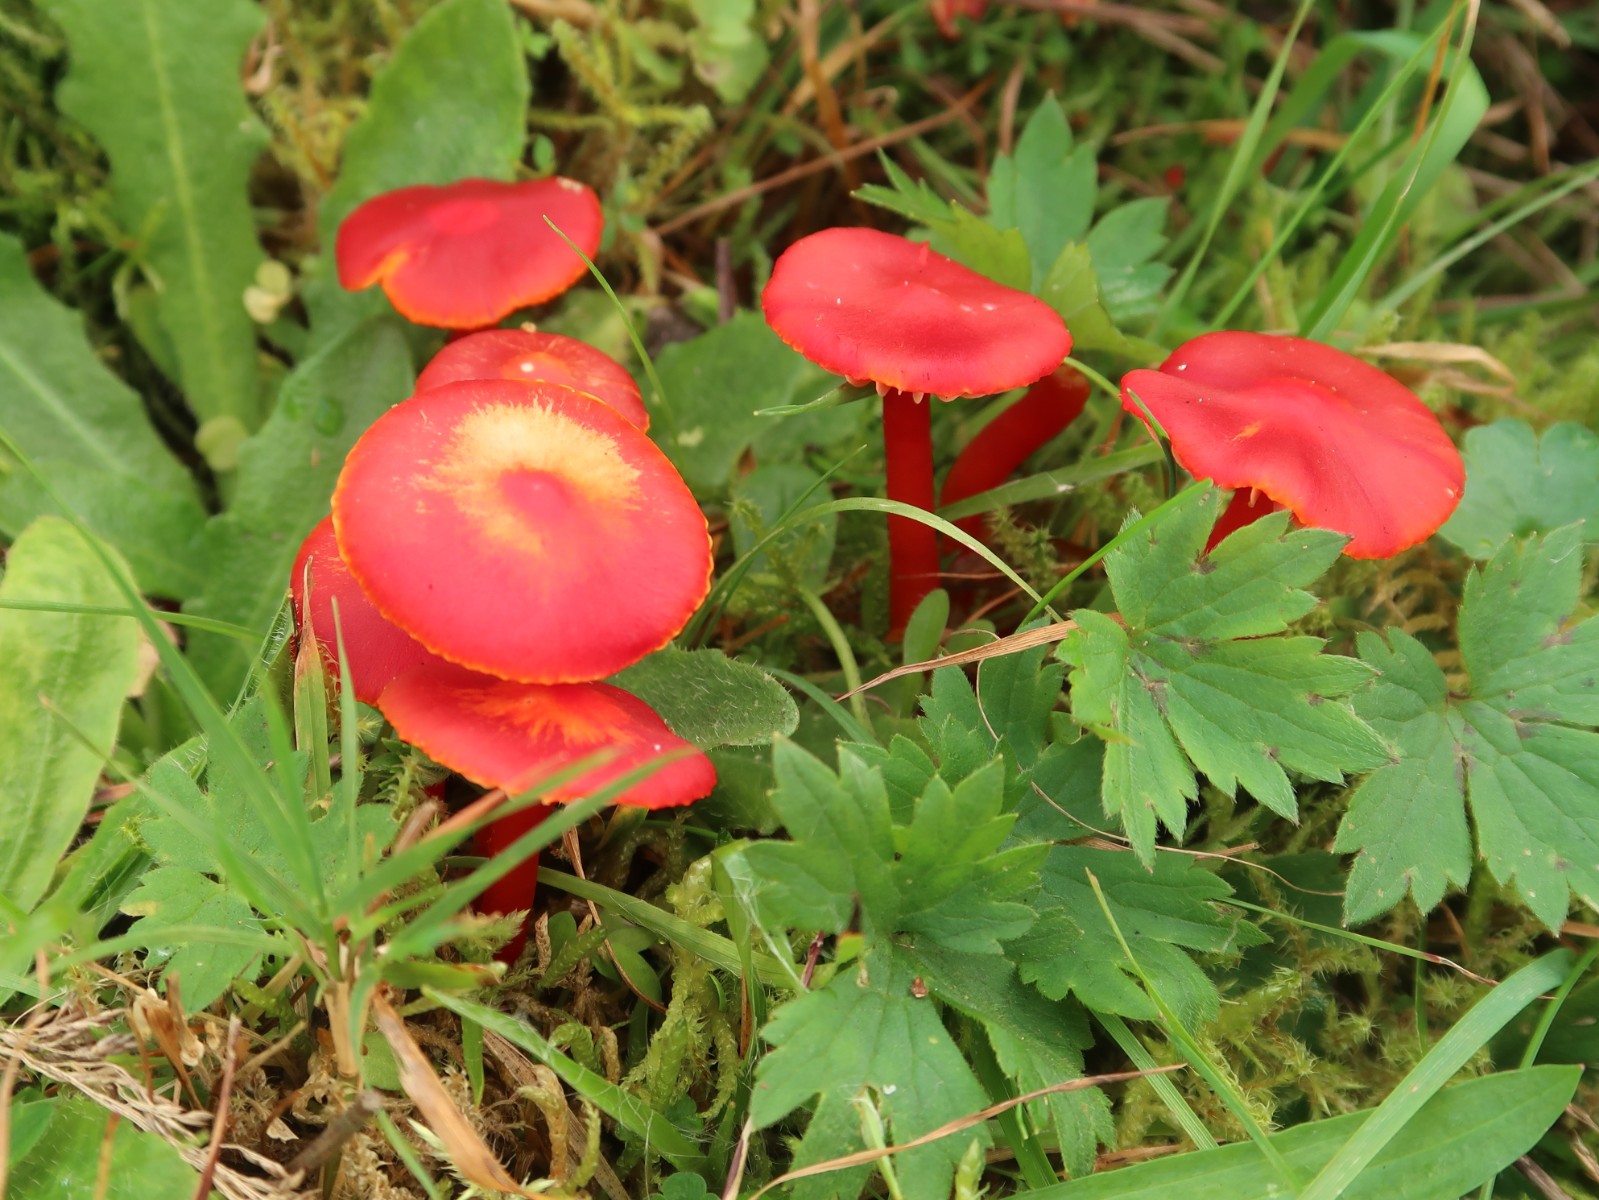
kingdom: Fungi
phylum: Basidiomycota
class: Agaricomycetes
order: Agaricales
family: Hygrophoraceae
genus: Hygrocybe
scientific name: Hygrocybe coccinea
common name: cinnober-vokshat
